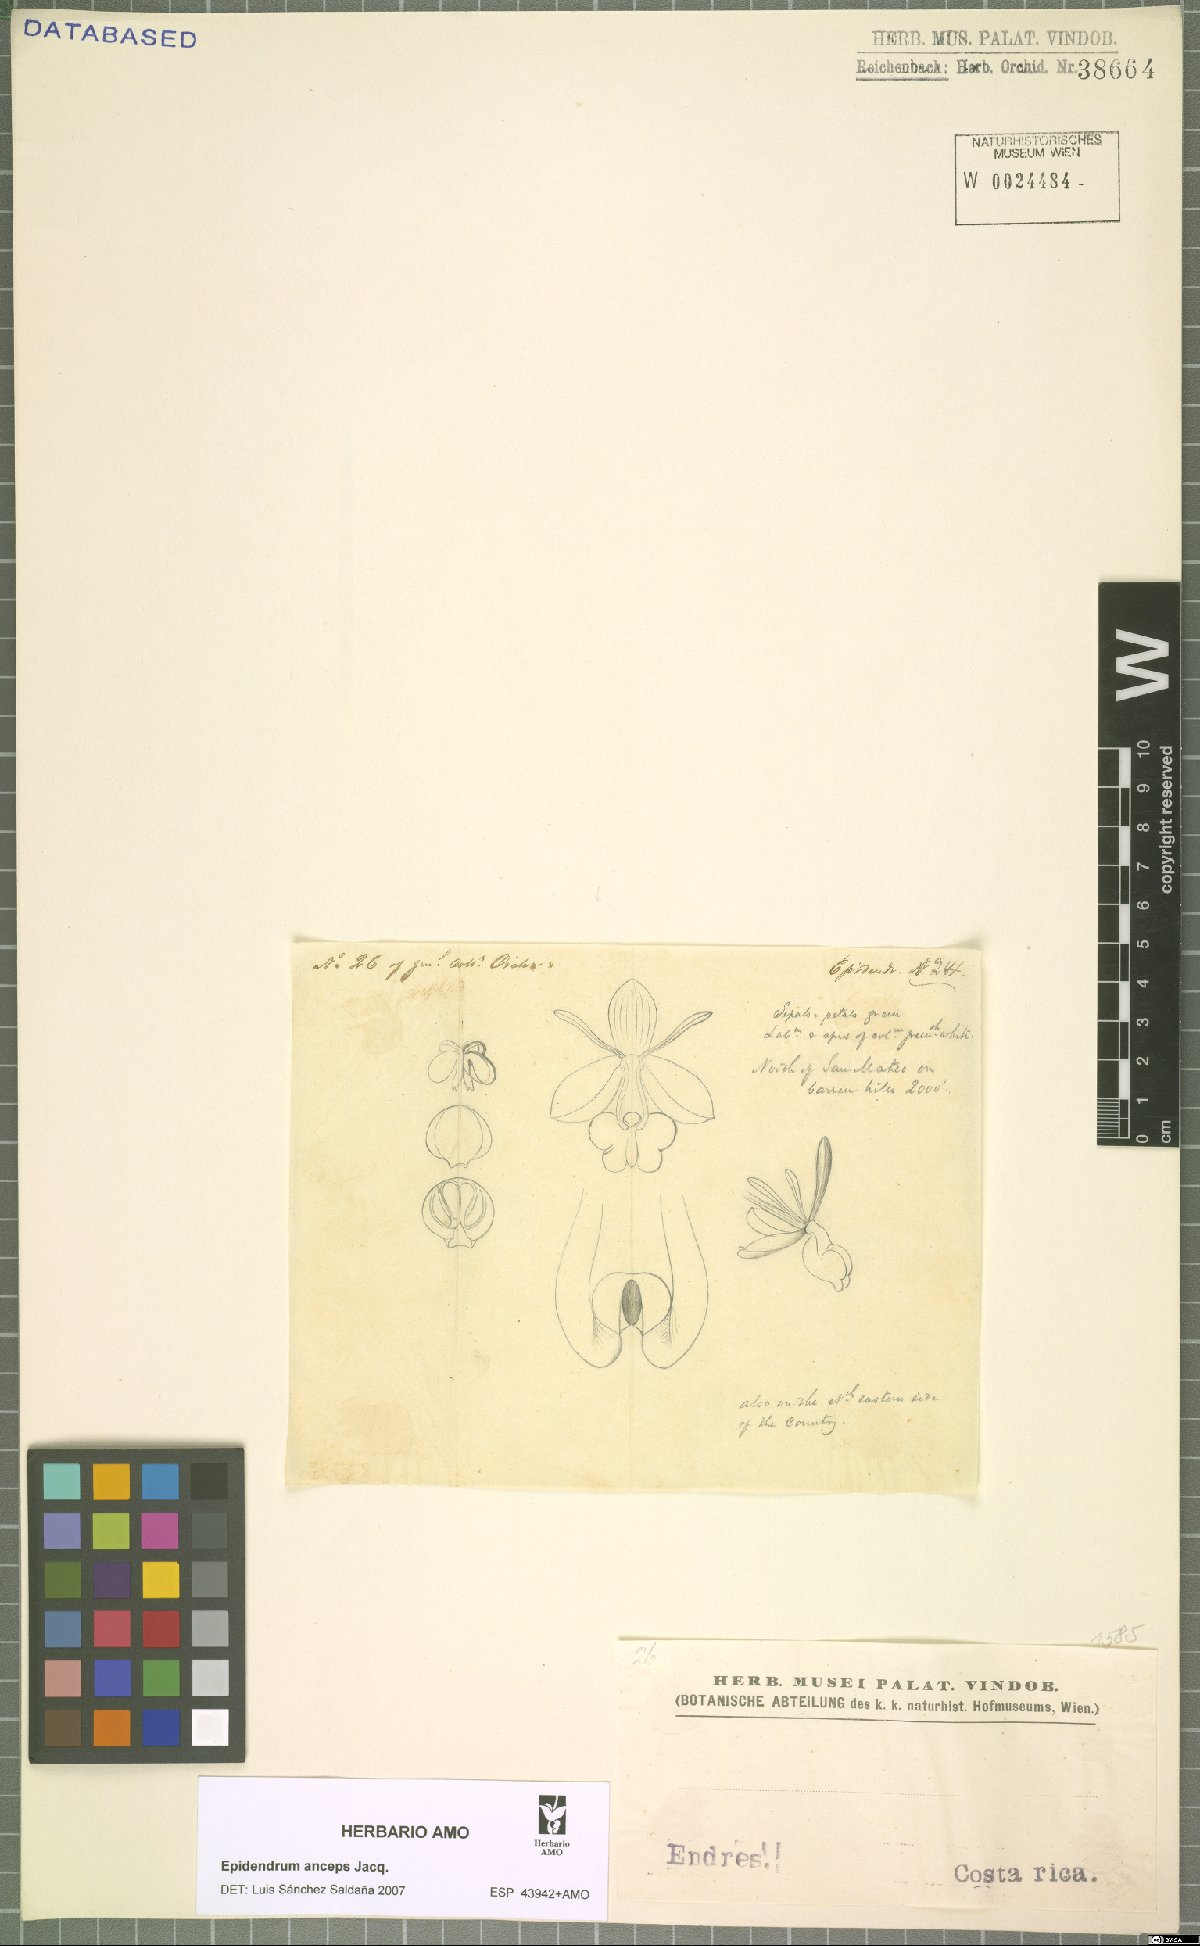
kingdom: Plantae
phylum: Tracheophyta
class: Liliopsida
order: Asparagales
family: Orchidaceae
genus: Epidendrum
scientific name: Epidendrum anceps
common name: Brown-flower butterfly orchid
